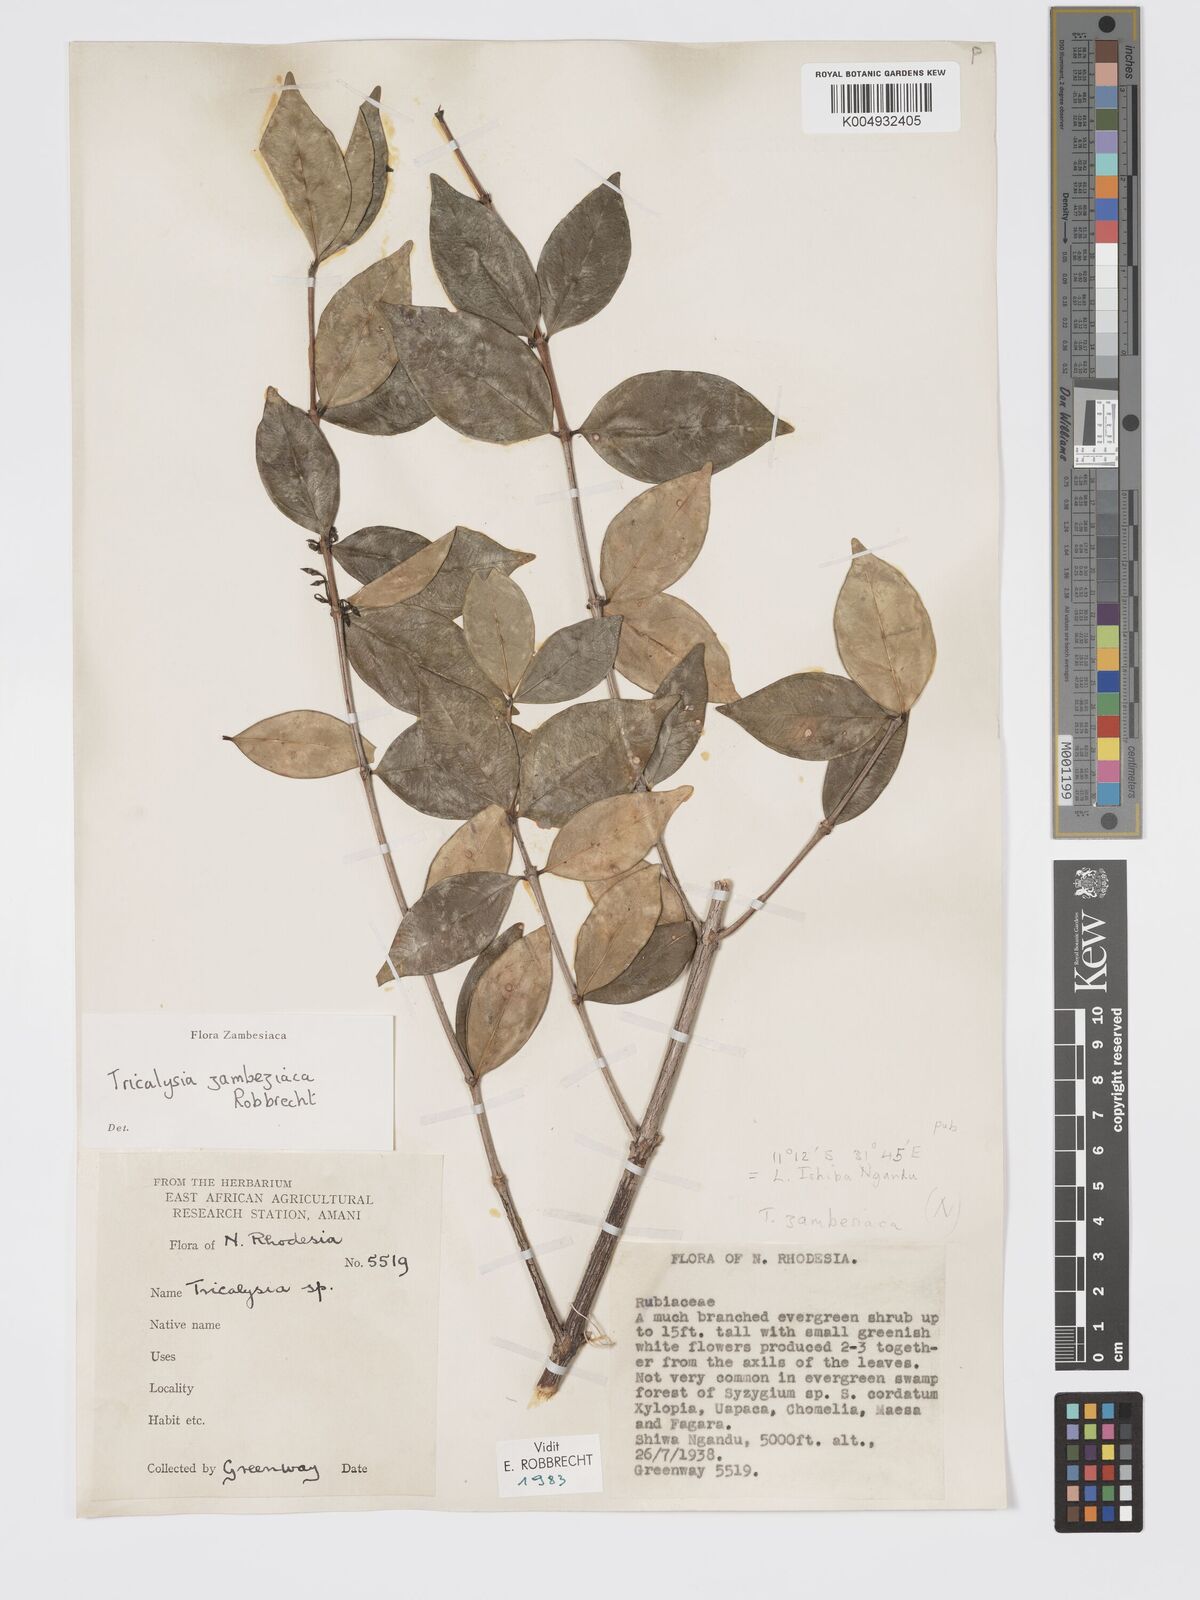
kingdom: Plantae
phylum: Tracheophyta
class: Magnoliopsida
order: Gentianales
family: Rubiaceae
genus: Tricalysia
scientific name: Tricalysia
